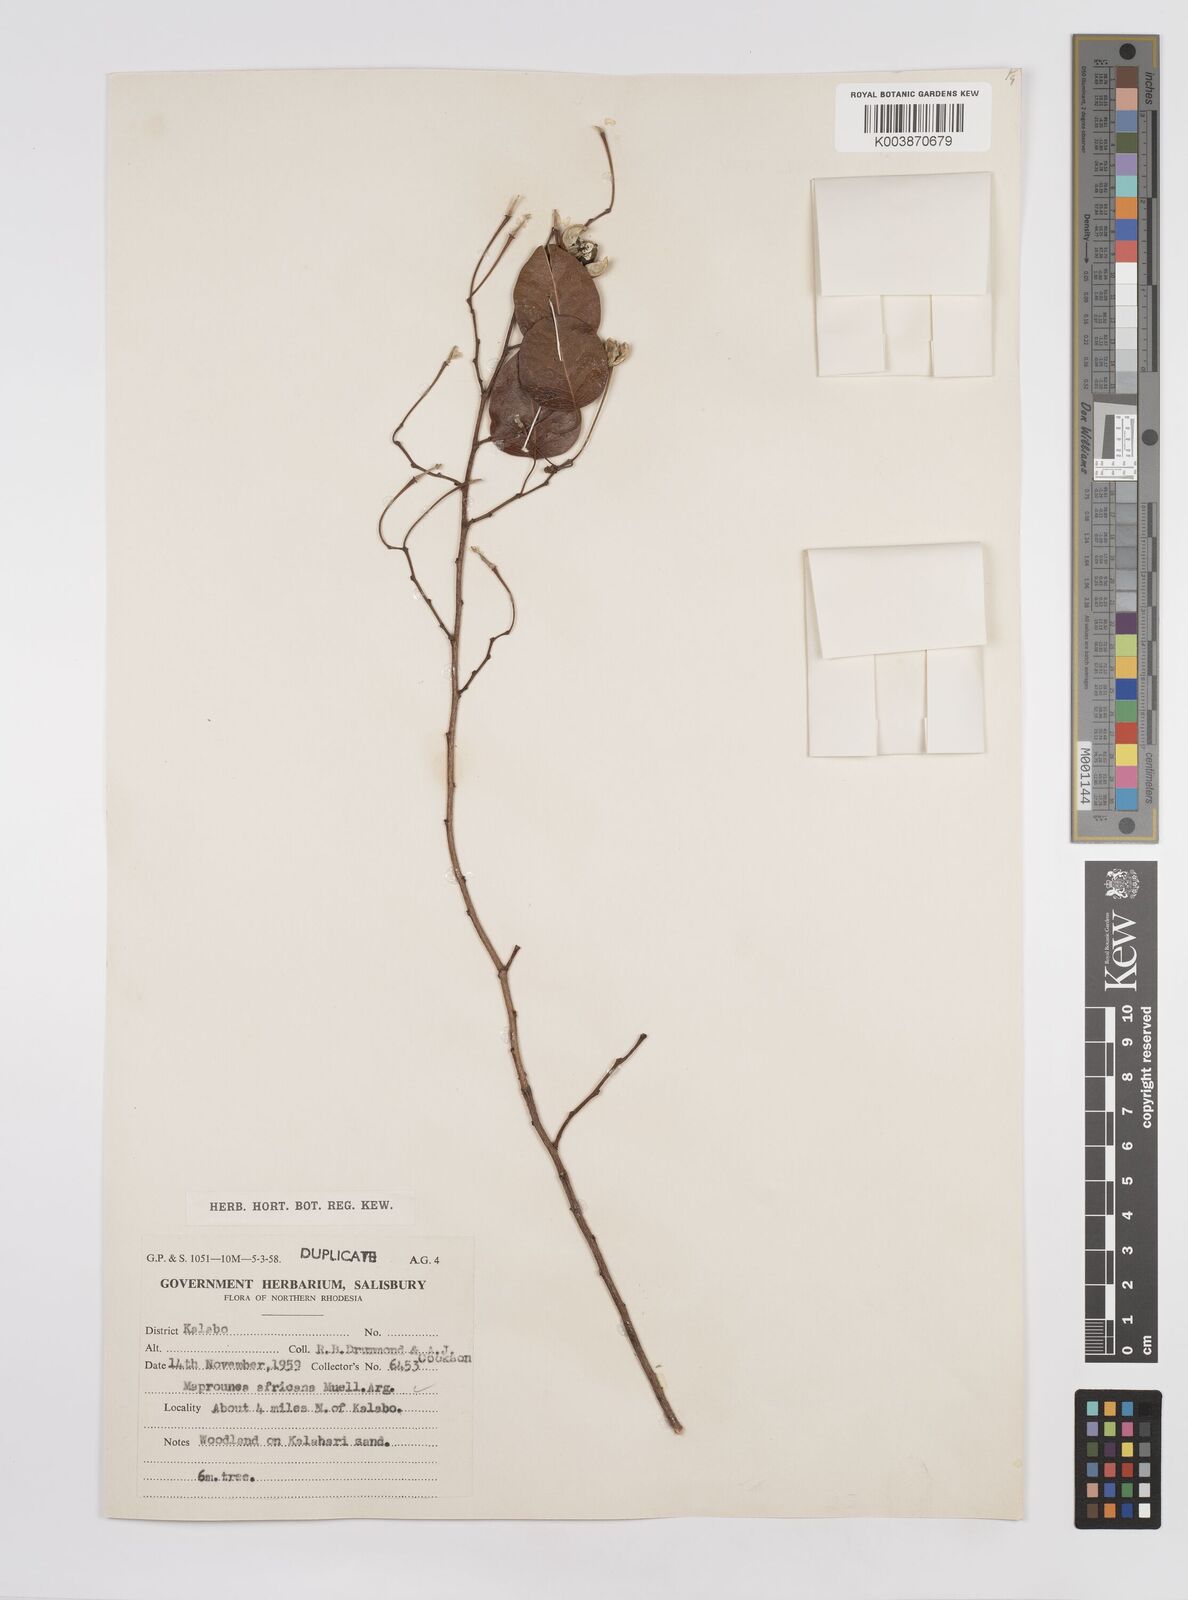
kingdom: Plantae
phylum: Tracheophyta
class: Magnoliopsida
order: Malpighiales
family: Euphorbiaceae
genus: Maprounea
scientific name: Maprounea africana
